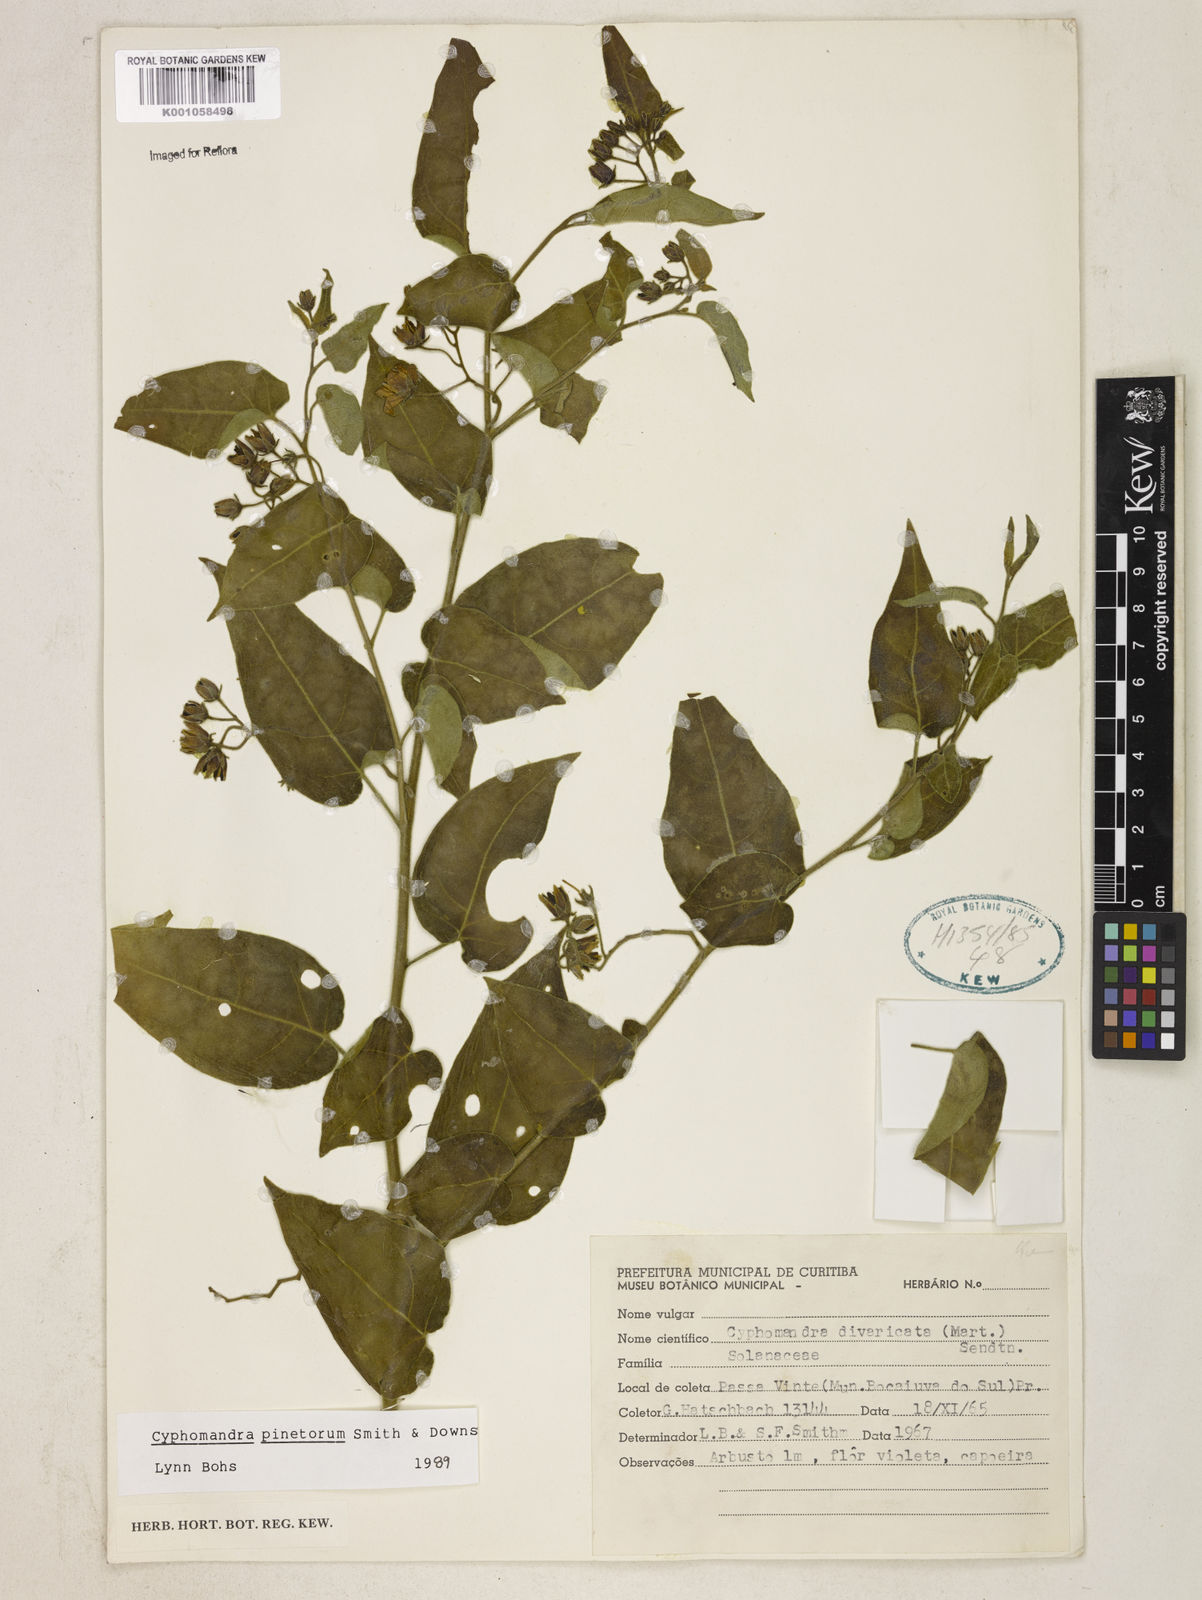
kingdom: Plantae
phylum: Tracheophyta
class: Magnoliopsida
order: Solanales
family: Solanaceae
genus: Solanum
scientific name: Solanum pinetorum
